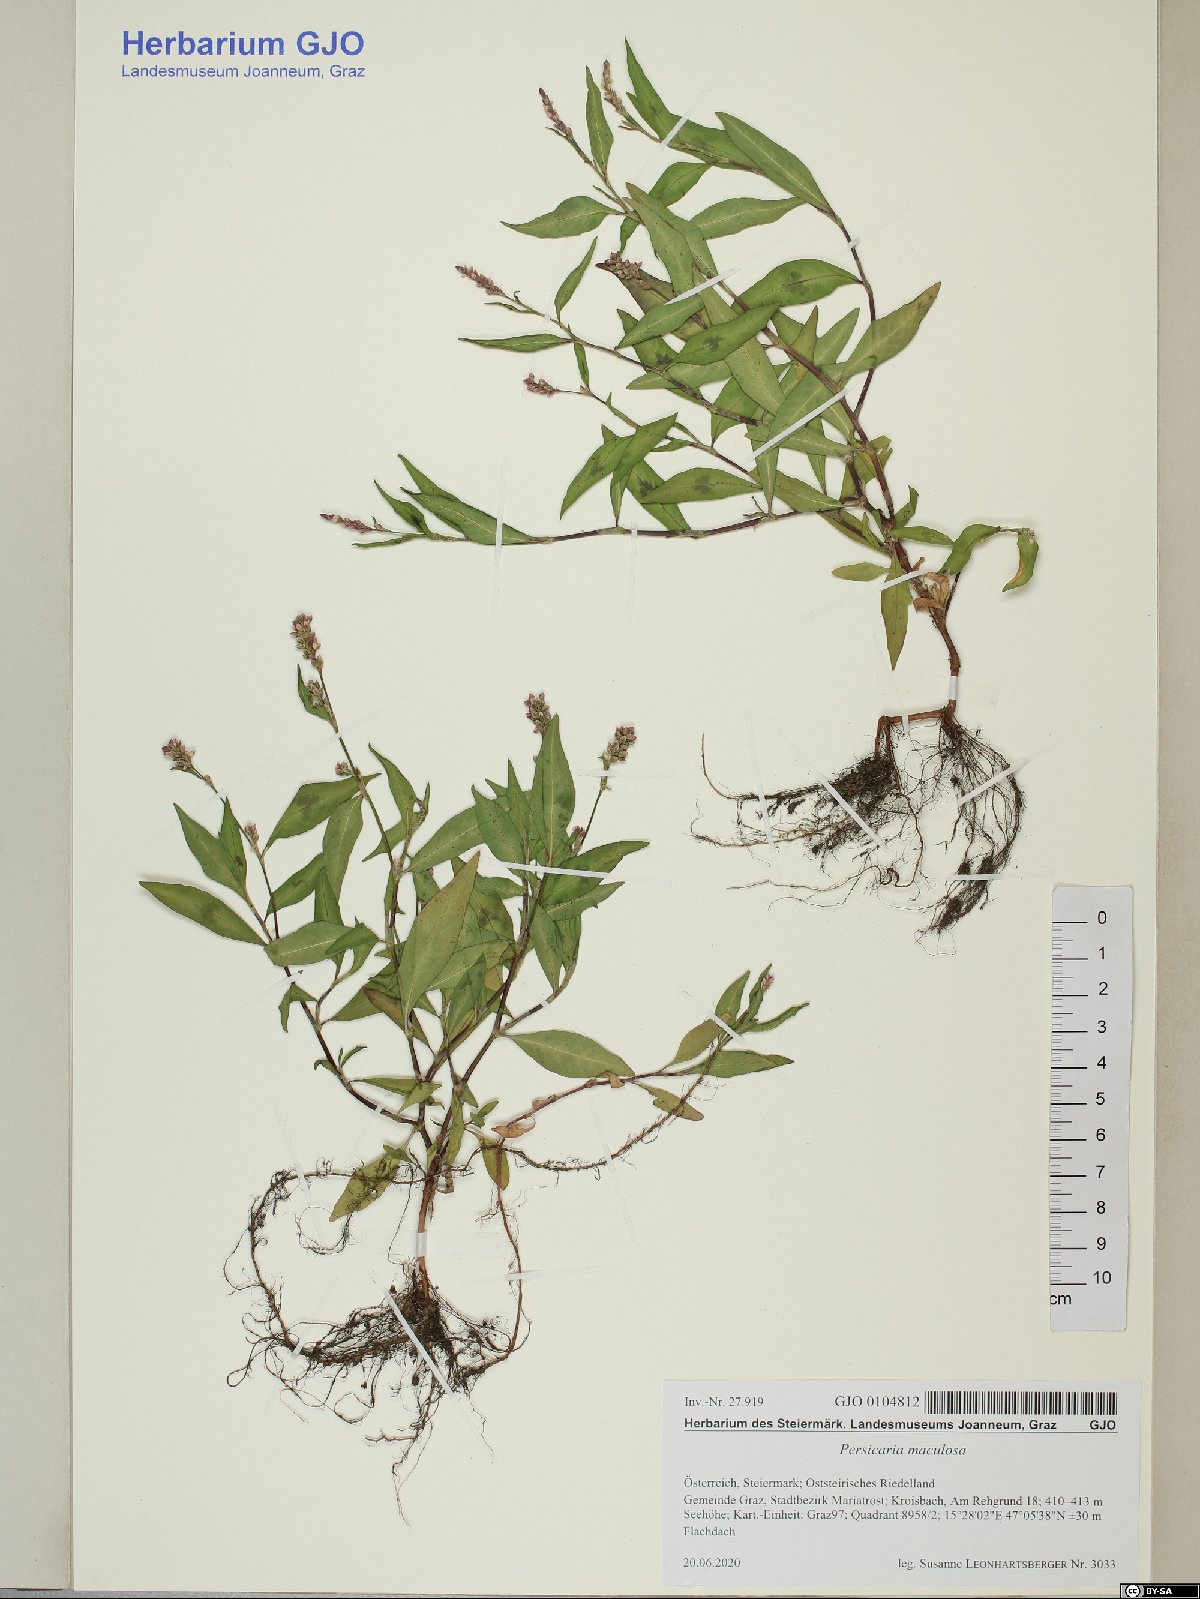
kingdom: Plantae
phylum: Tracheophyta
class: Magnoliopsida
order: Caryophyllales
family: Polygonaceae
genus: Persicaria
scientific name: Persicaria maculosa
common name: Redshank
